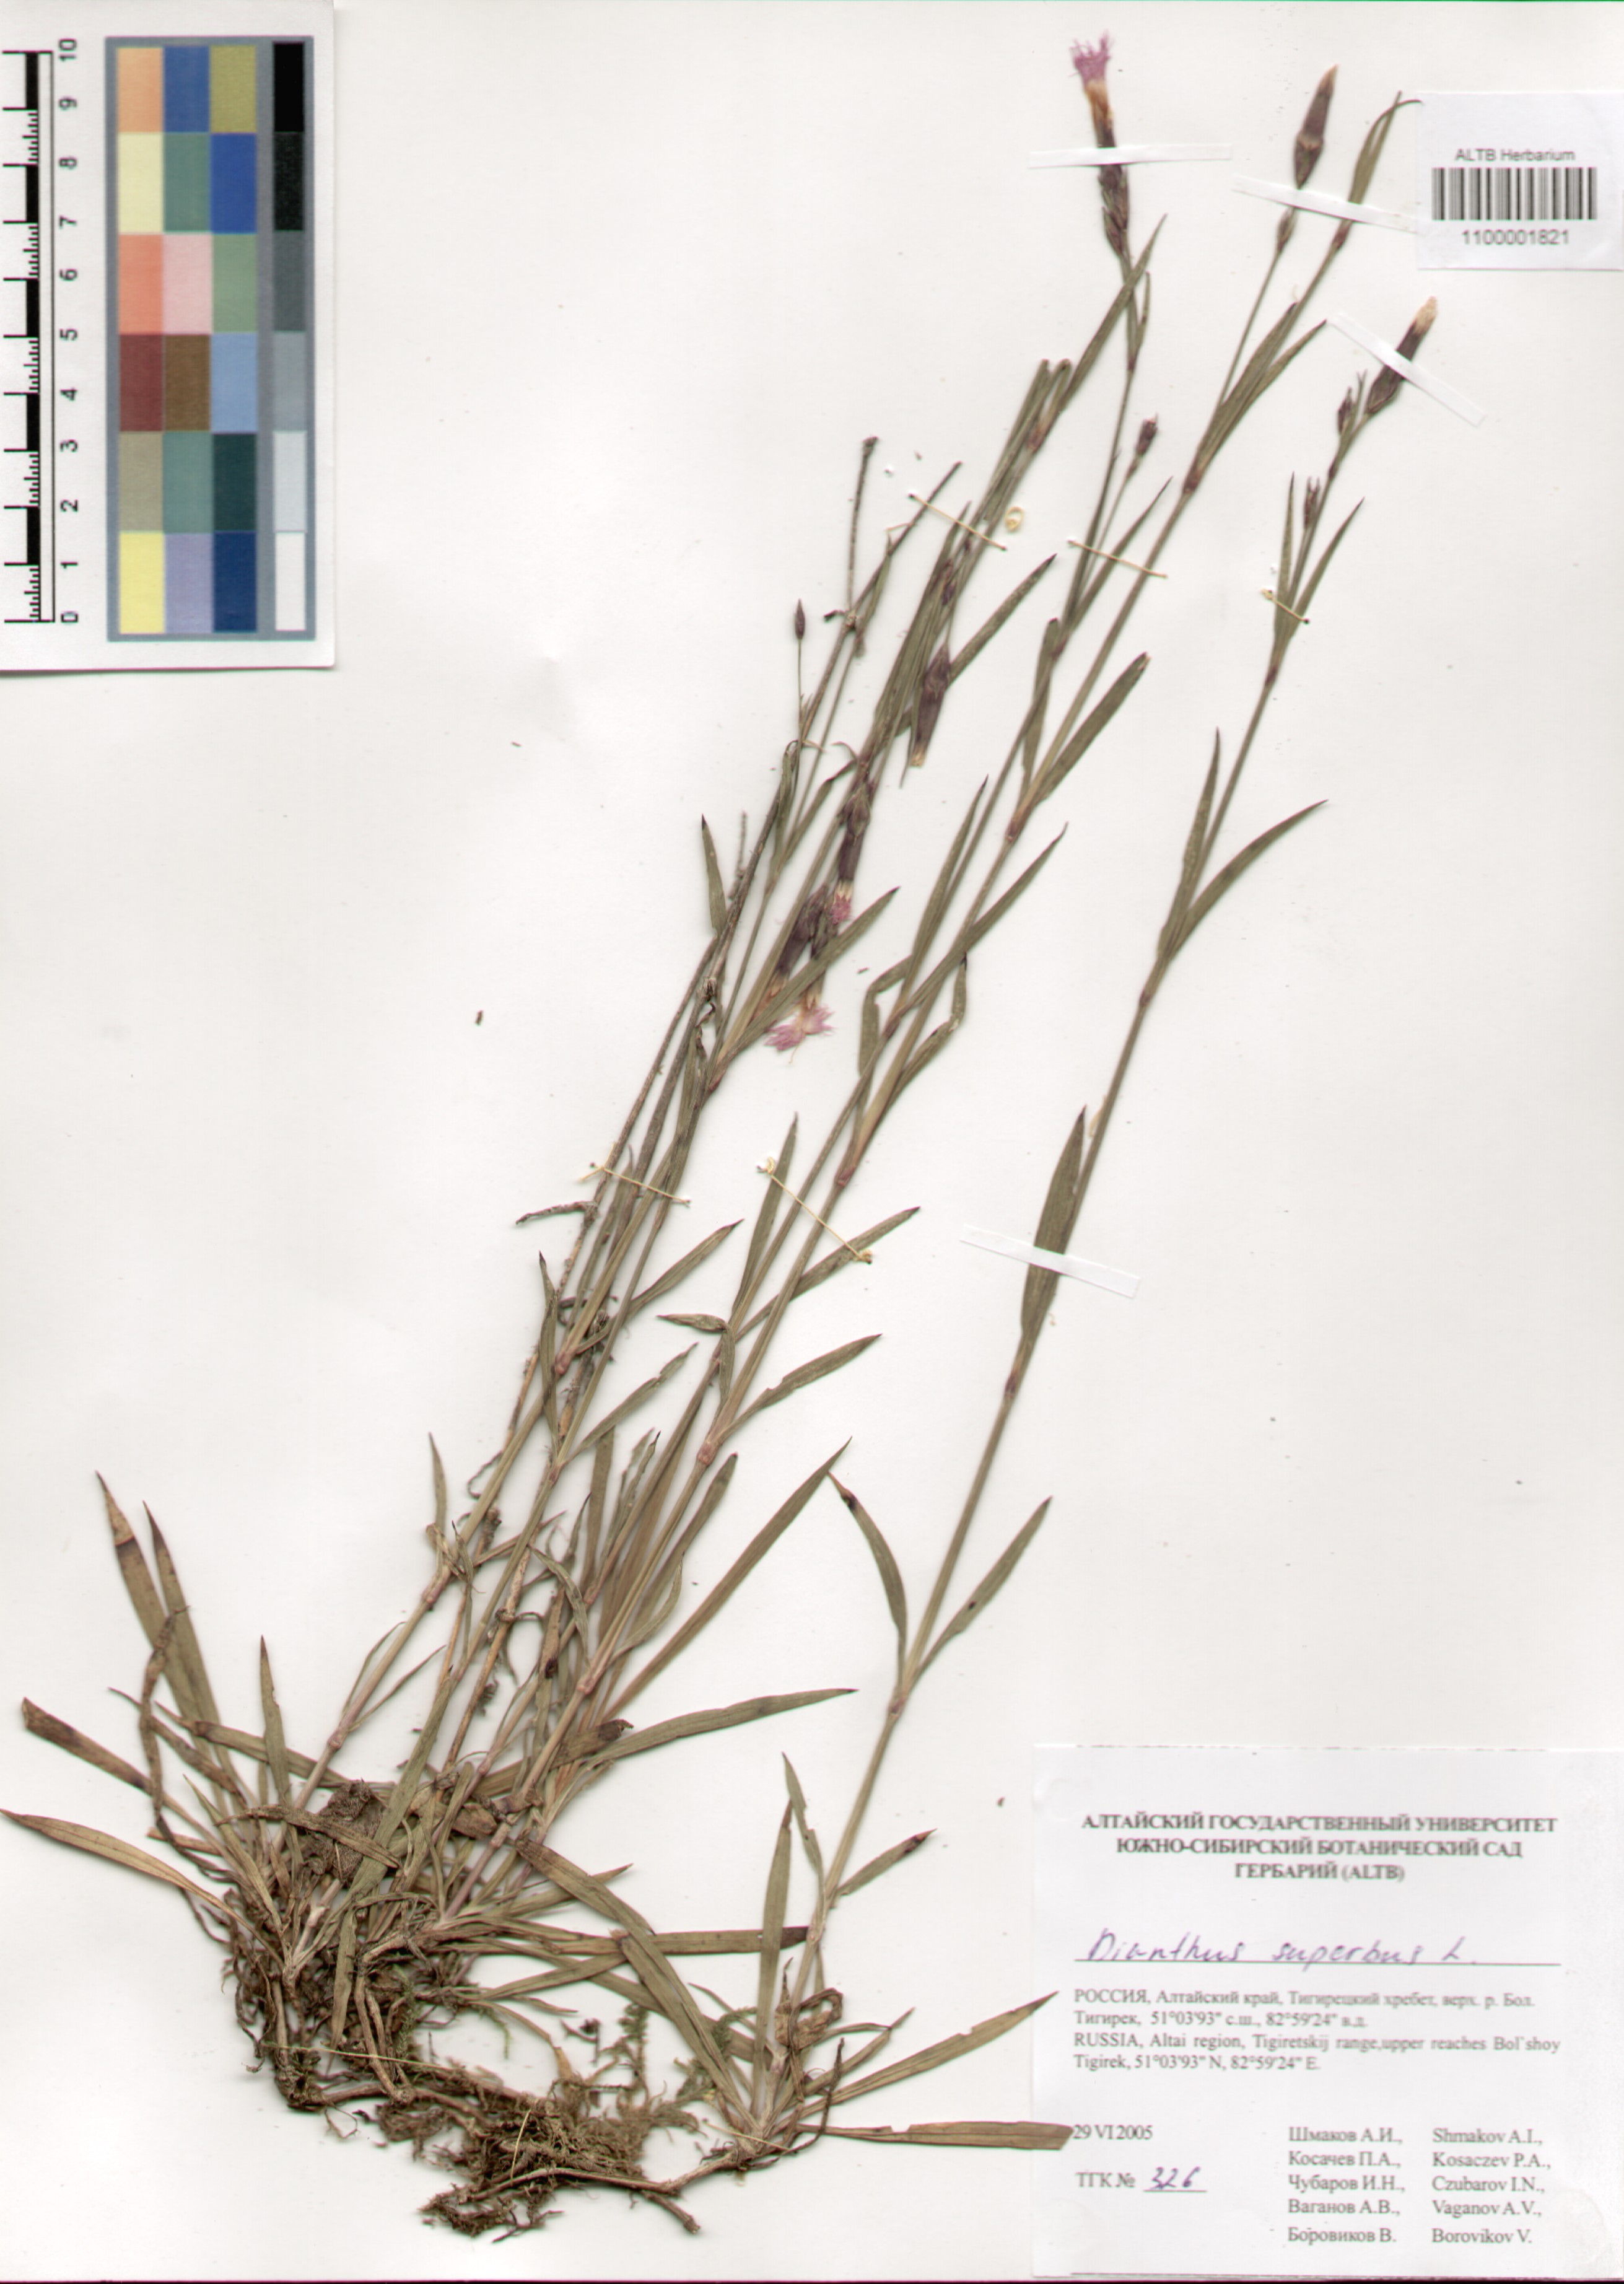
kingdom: Plantae
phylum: Tracheophyta
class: Magnoliopsida
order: Caryophyllales
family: Caryophyllaceae
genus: Dianthus
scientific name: Dianthus superbus
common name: Fringed pink
